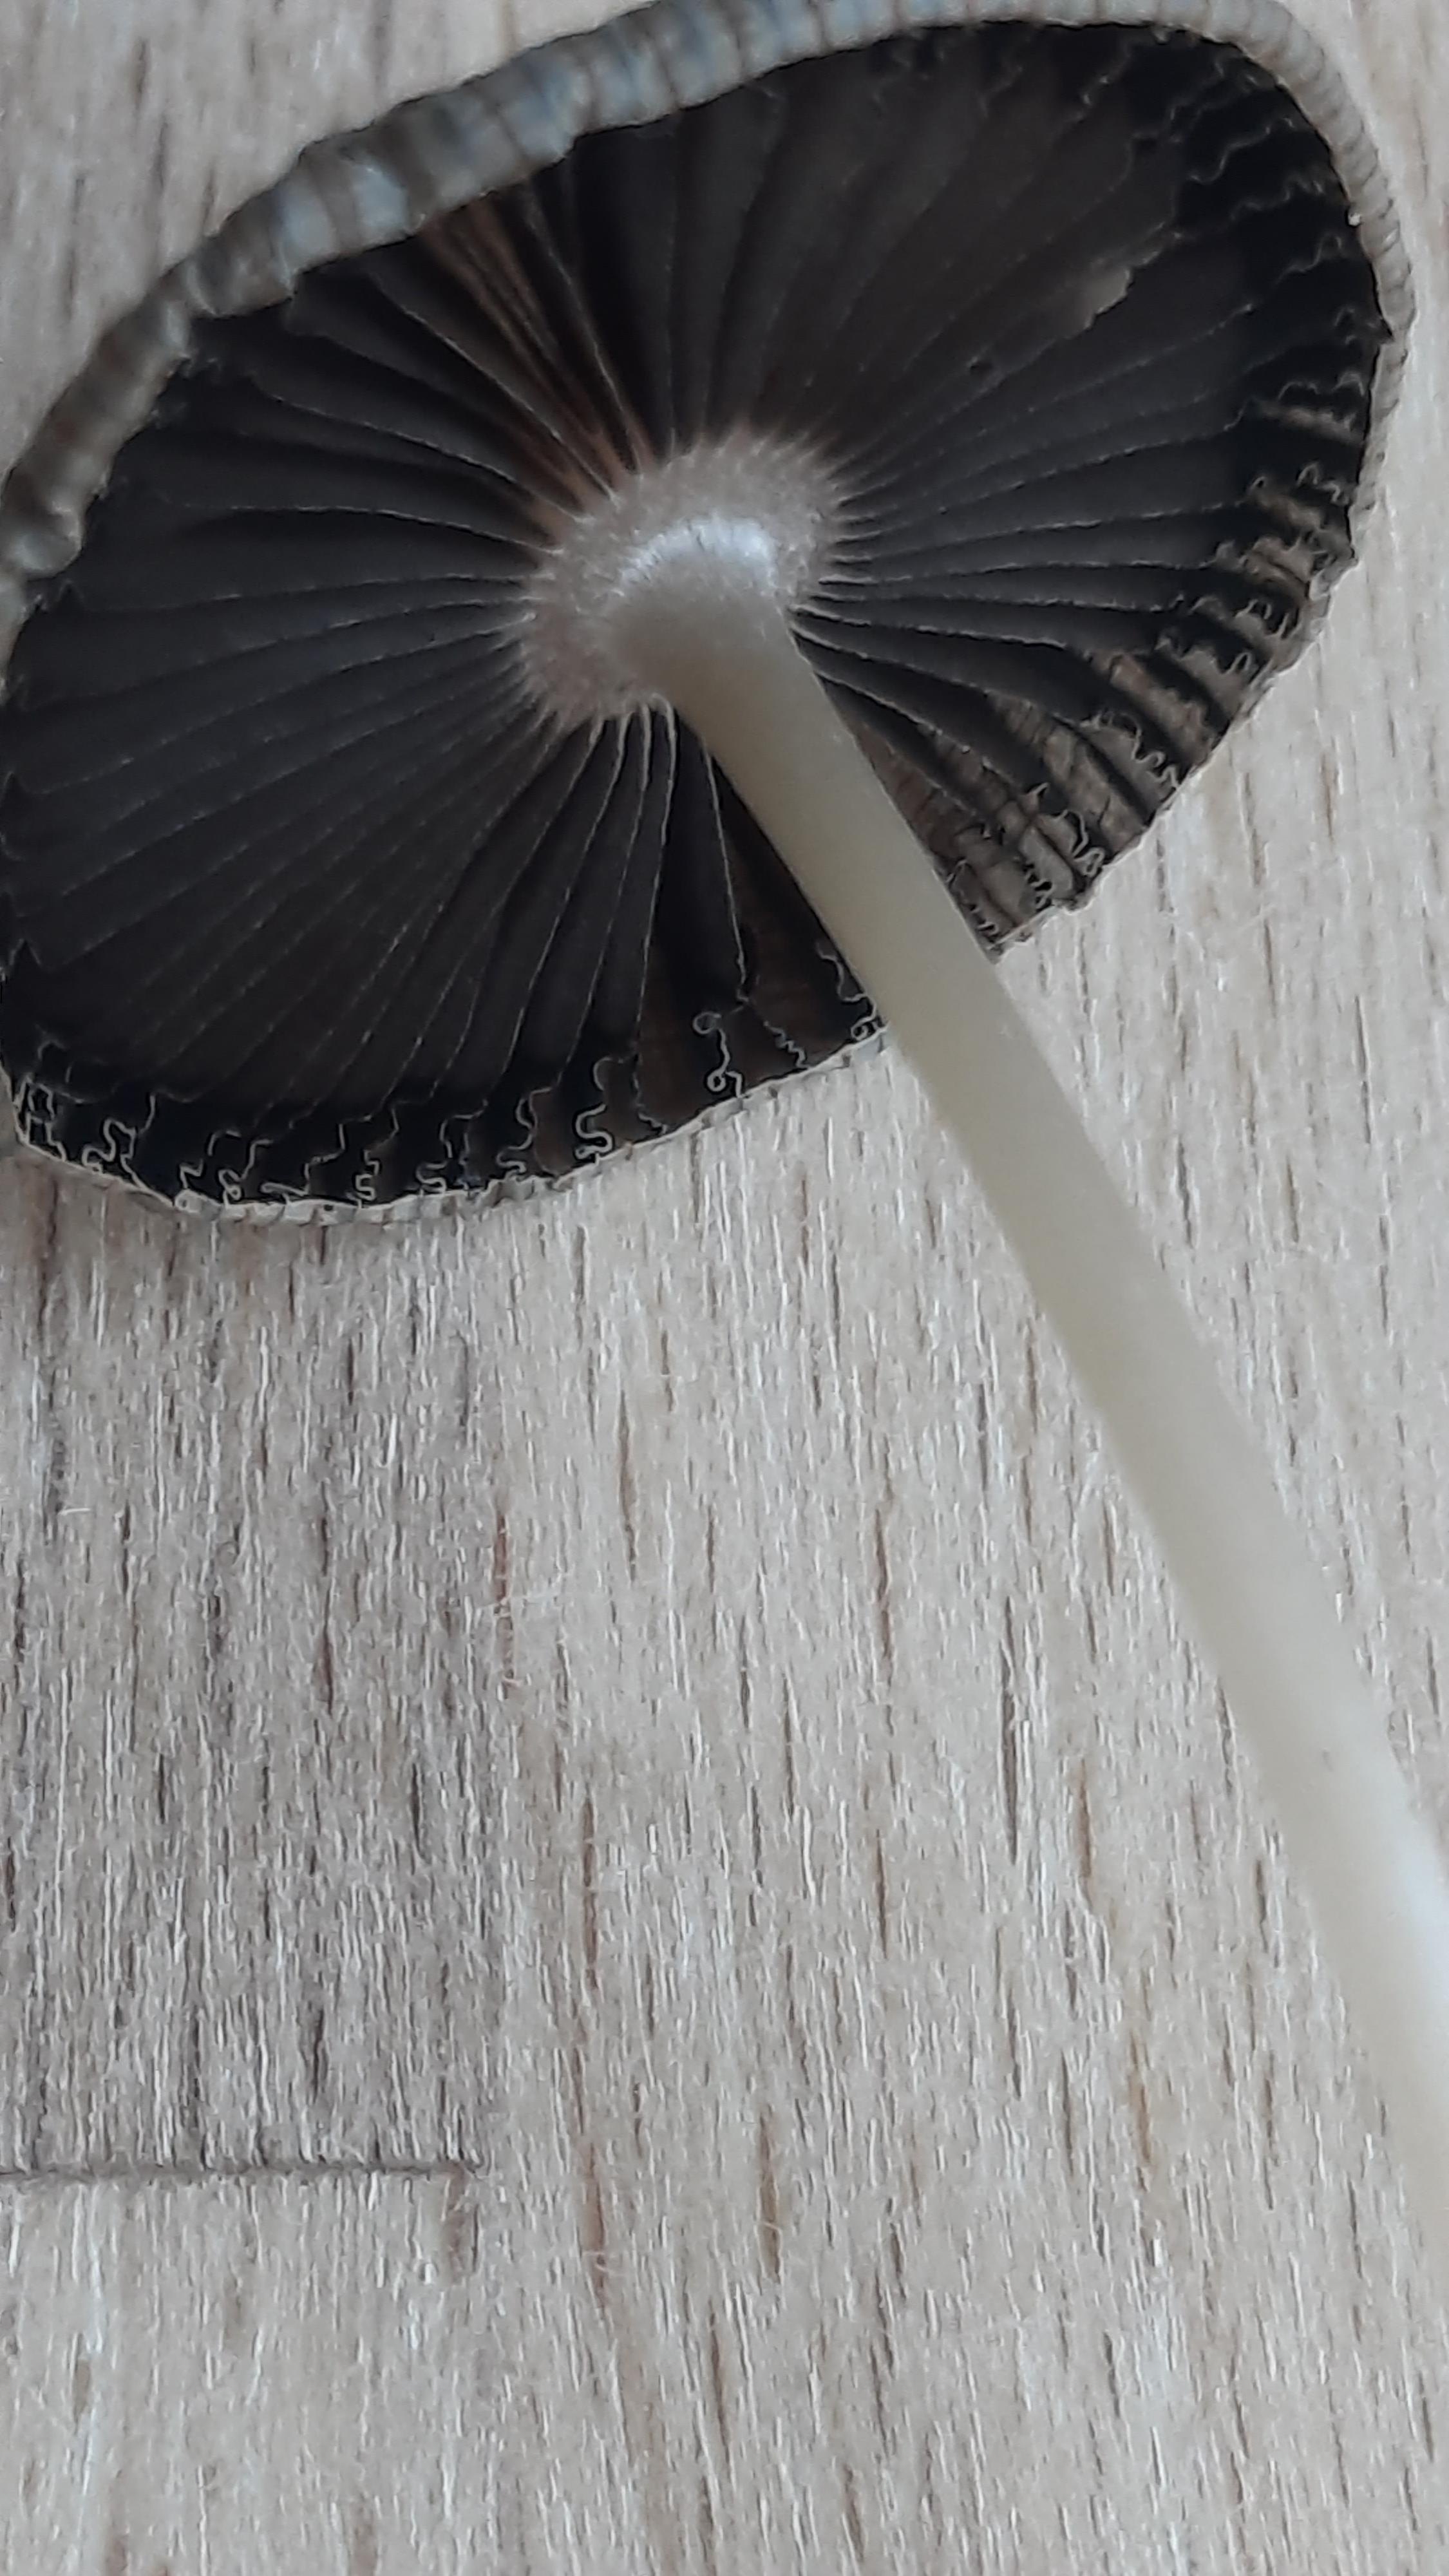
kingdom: Fungi
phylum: Basidiomycota
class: Agaricomycetes
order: Agaricales
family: Psathyrellaceae
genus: Parasola
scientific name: Parasola
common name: hjulhat
